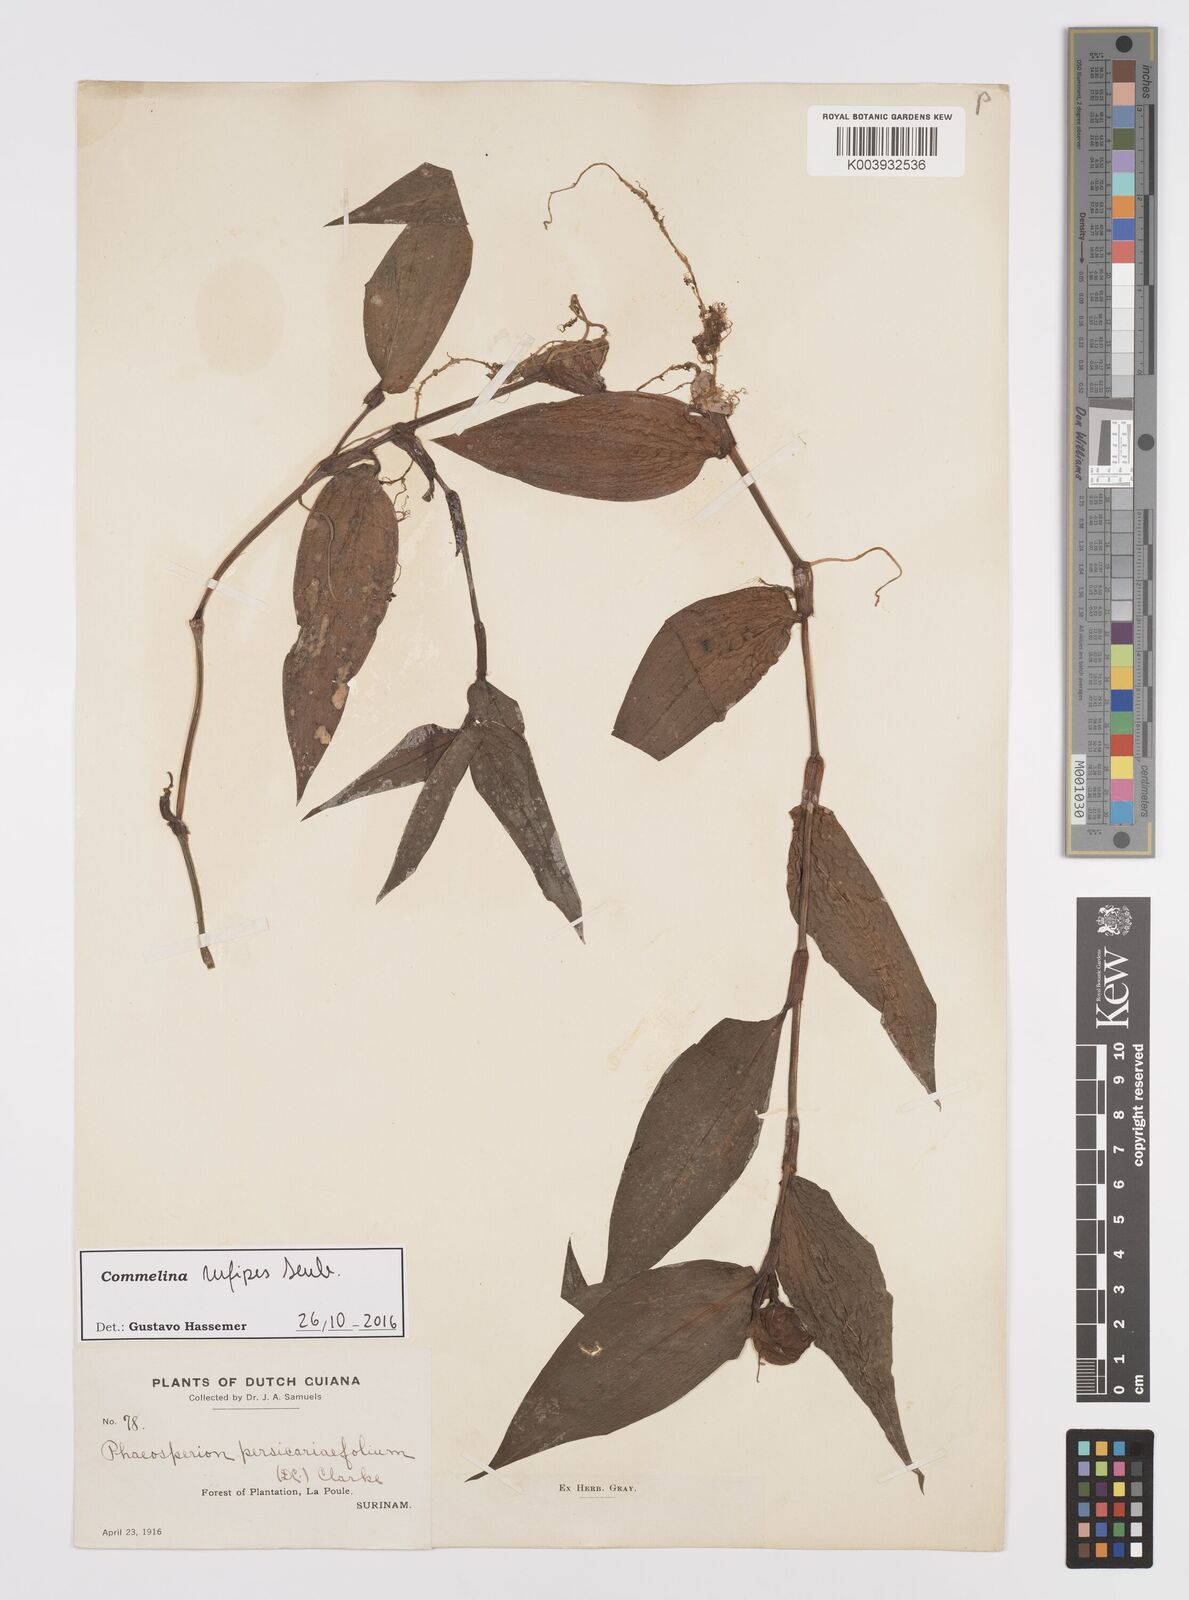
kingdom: Plantae
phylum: Tracheophyta
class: Liliopsida
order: Commelinales
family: Commelinaceae
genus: Commelina
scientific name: Commelina rufipes
